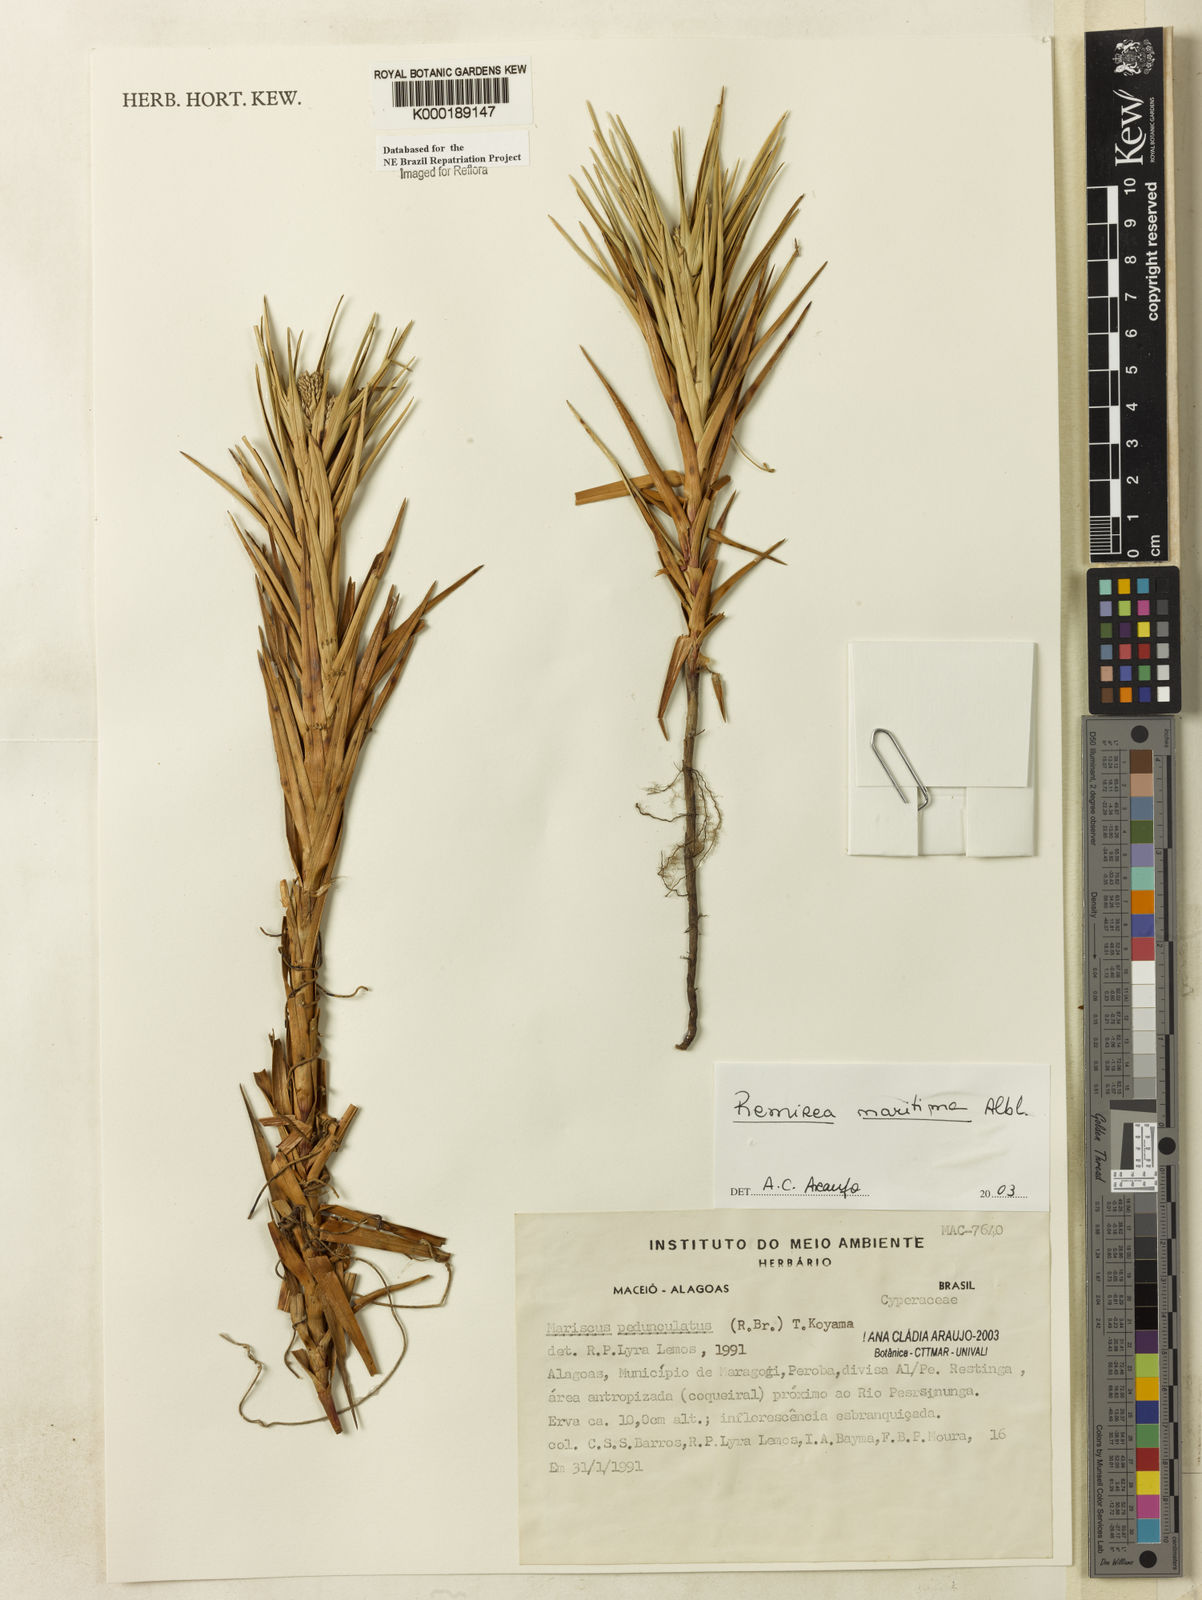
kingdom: Plantae
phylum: Tracheophyta
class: Liliopsida
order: Poales
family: Cyperaceae
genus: Cyperus
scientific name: Cyperus pedunculatus
